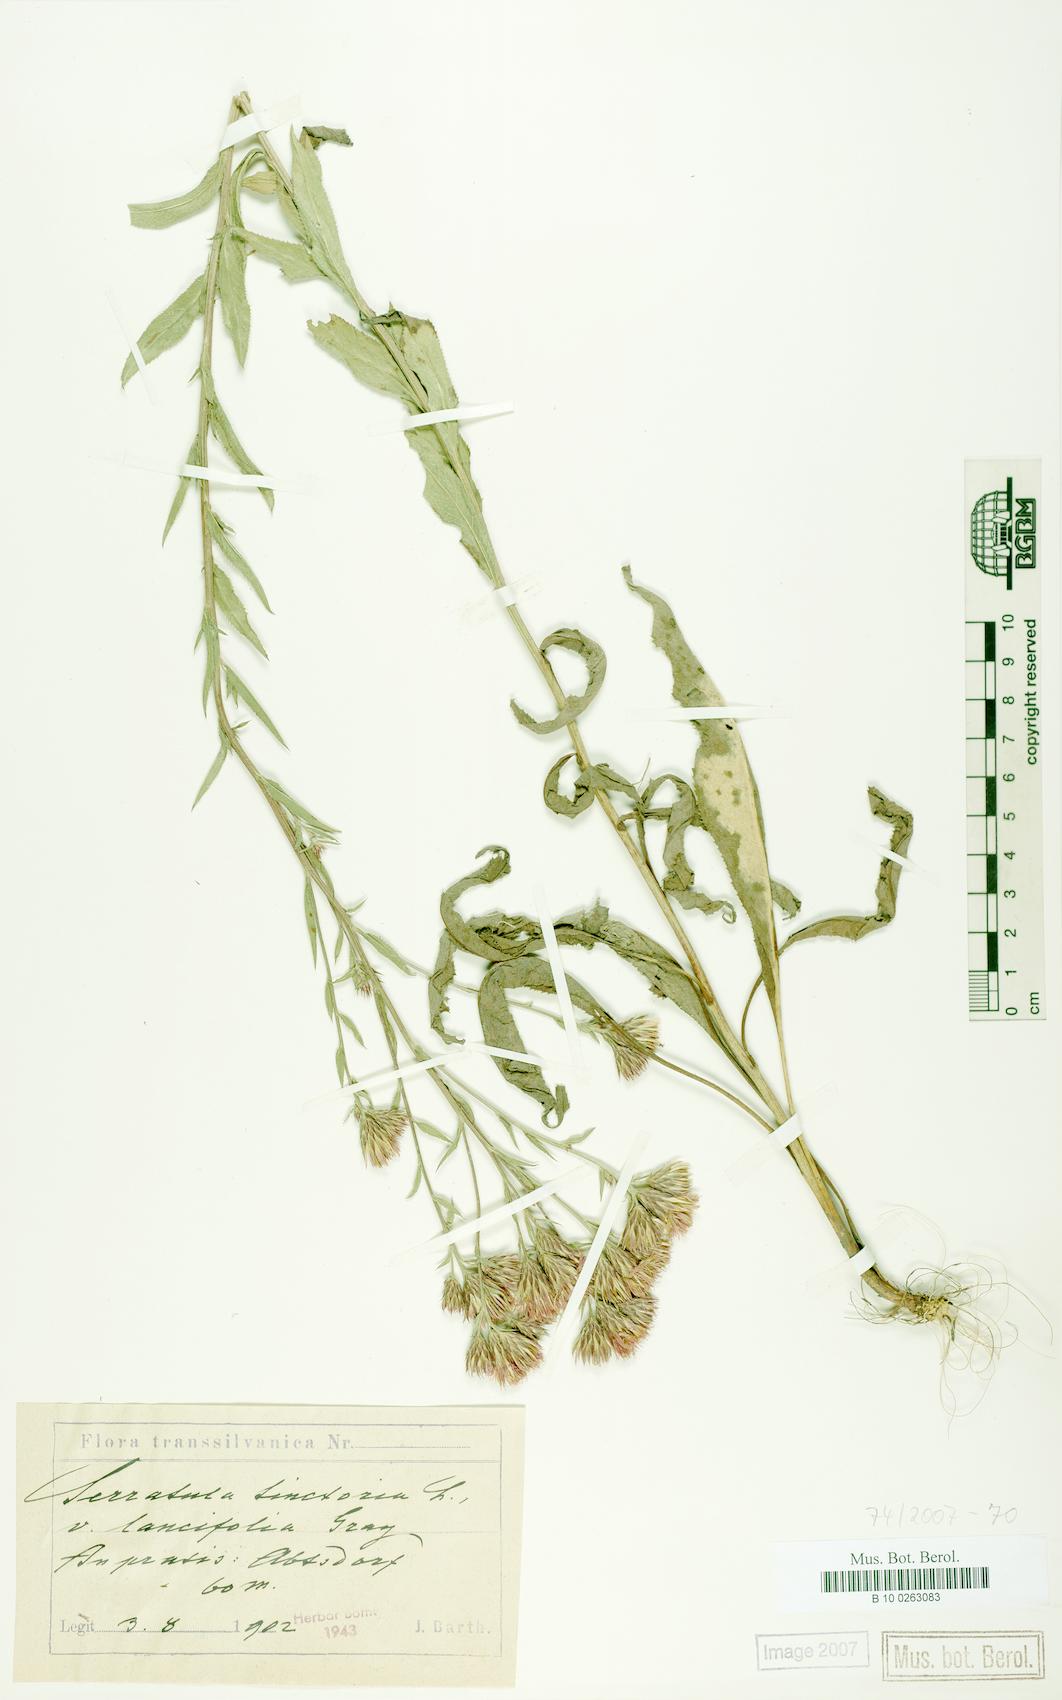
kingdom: Plantae
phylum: Tracheophyta
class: Magnoliopsida
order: Asterales
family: Asteraceae
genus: Serratula
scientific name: Serratula tinctoria
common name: Saw-wort
